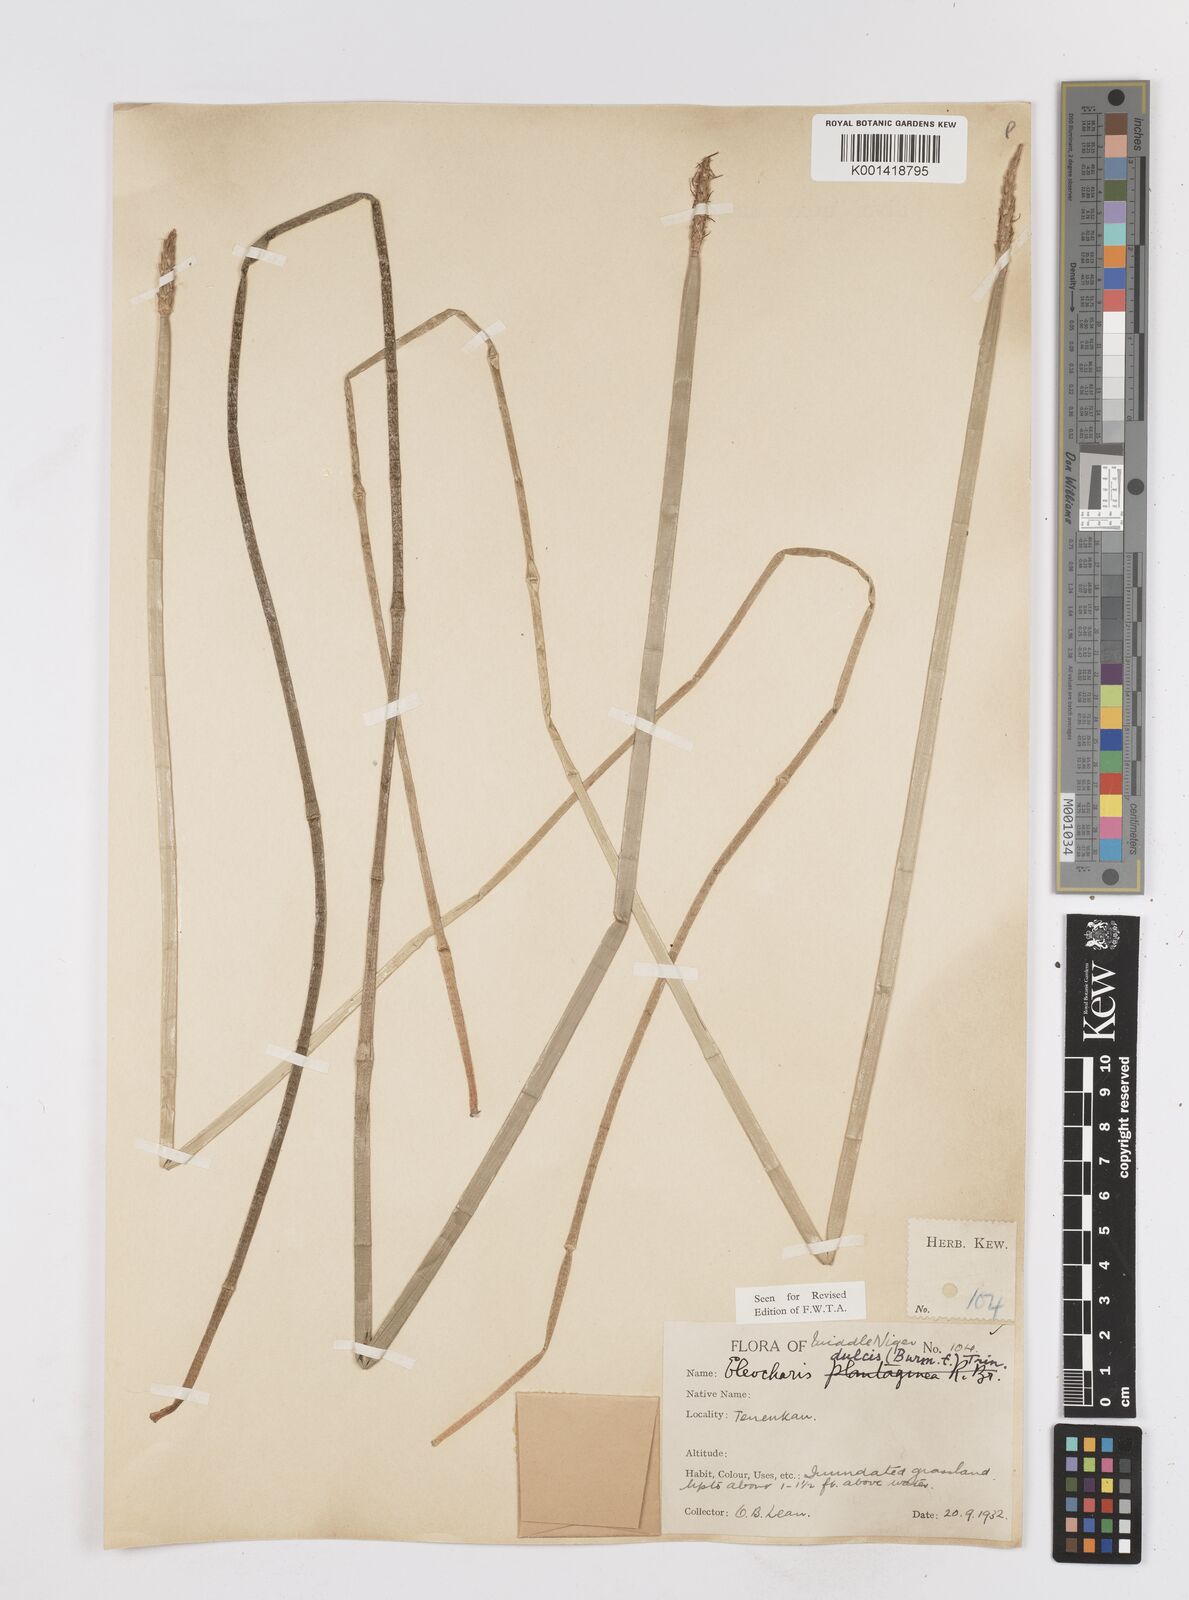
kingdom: Plantae
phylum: Tracheophyta
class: Liliopsida
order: Poales
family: Cyperaceae
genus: Eleocharis
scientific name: Eleocharis dulcis
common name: Chinese water chestnut
